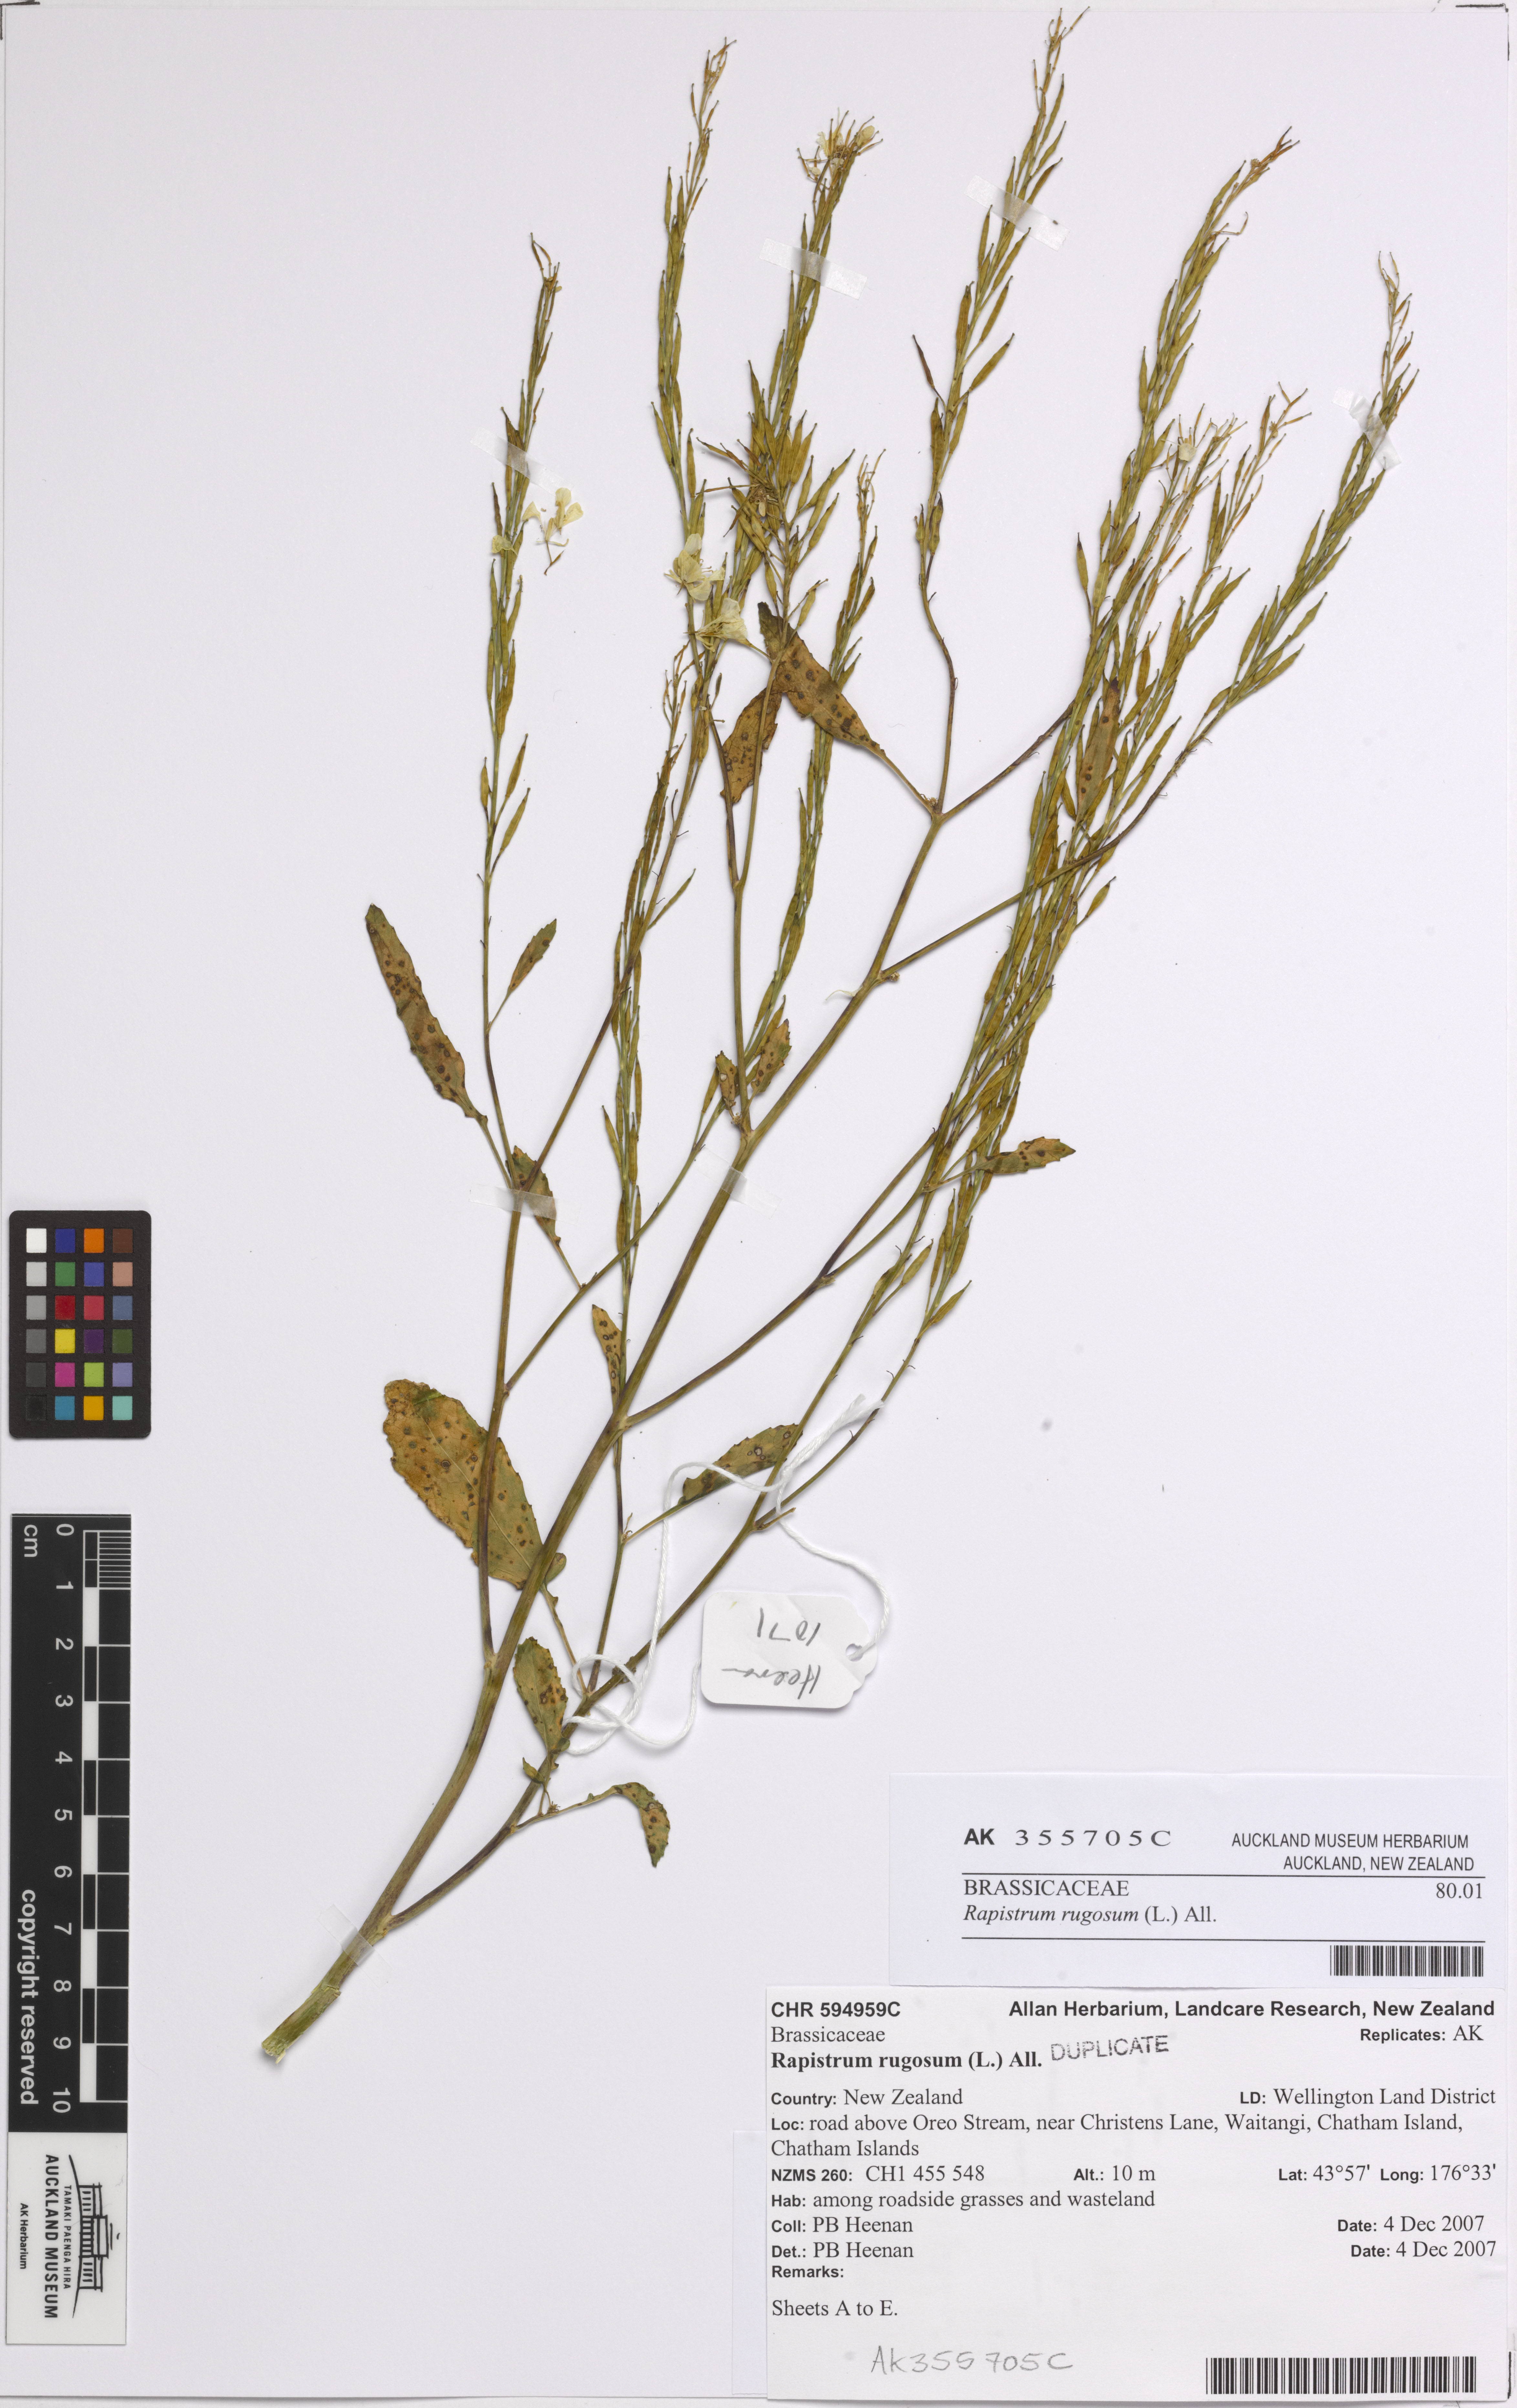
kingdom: Plantae
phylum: Tracheophyta
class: Magnoliopsida
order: Brassicales
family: Brassicaceae
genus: Rapistrum
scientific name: Rapistrum rugosum
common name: Annual bastardcabbage
